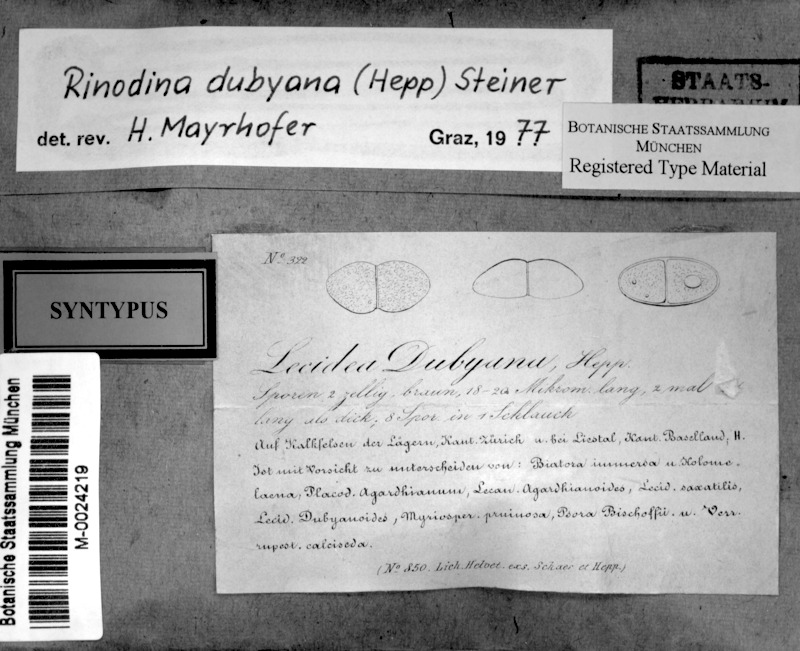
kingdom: Fungi
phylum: Ascomycota
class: Lecanoromycetes
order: Caliciales
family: Physciaceae
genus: Rinodina
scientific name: Rinodina dubyana
